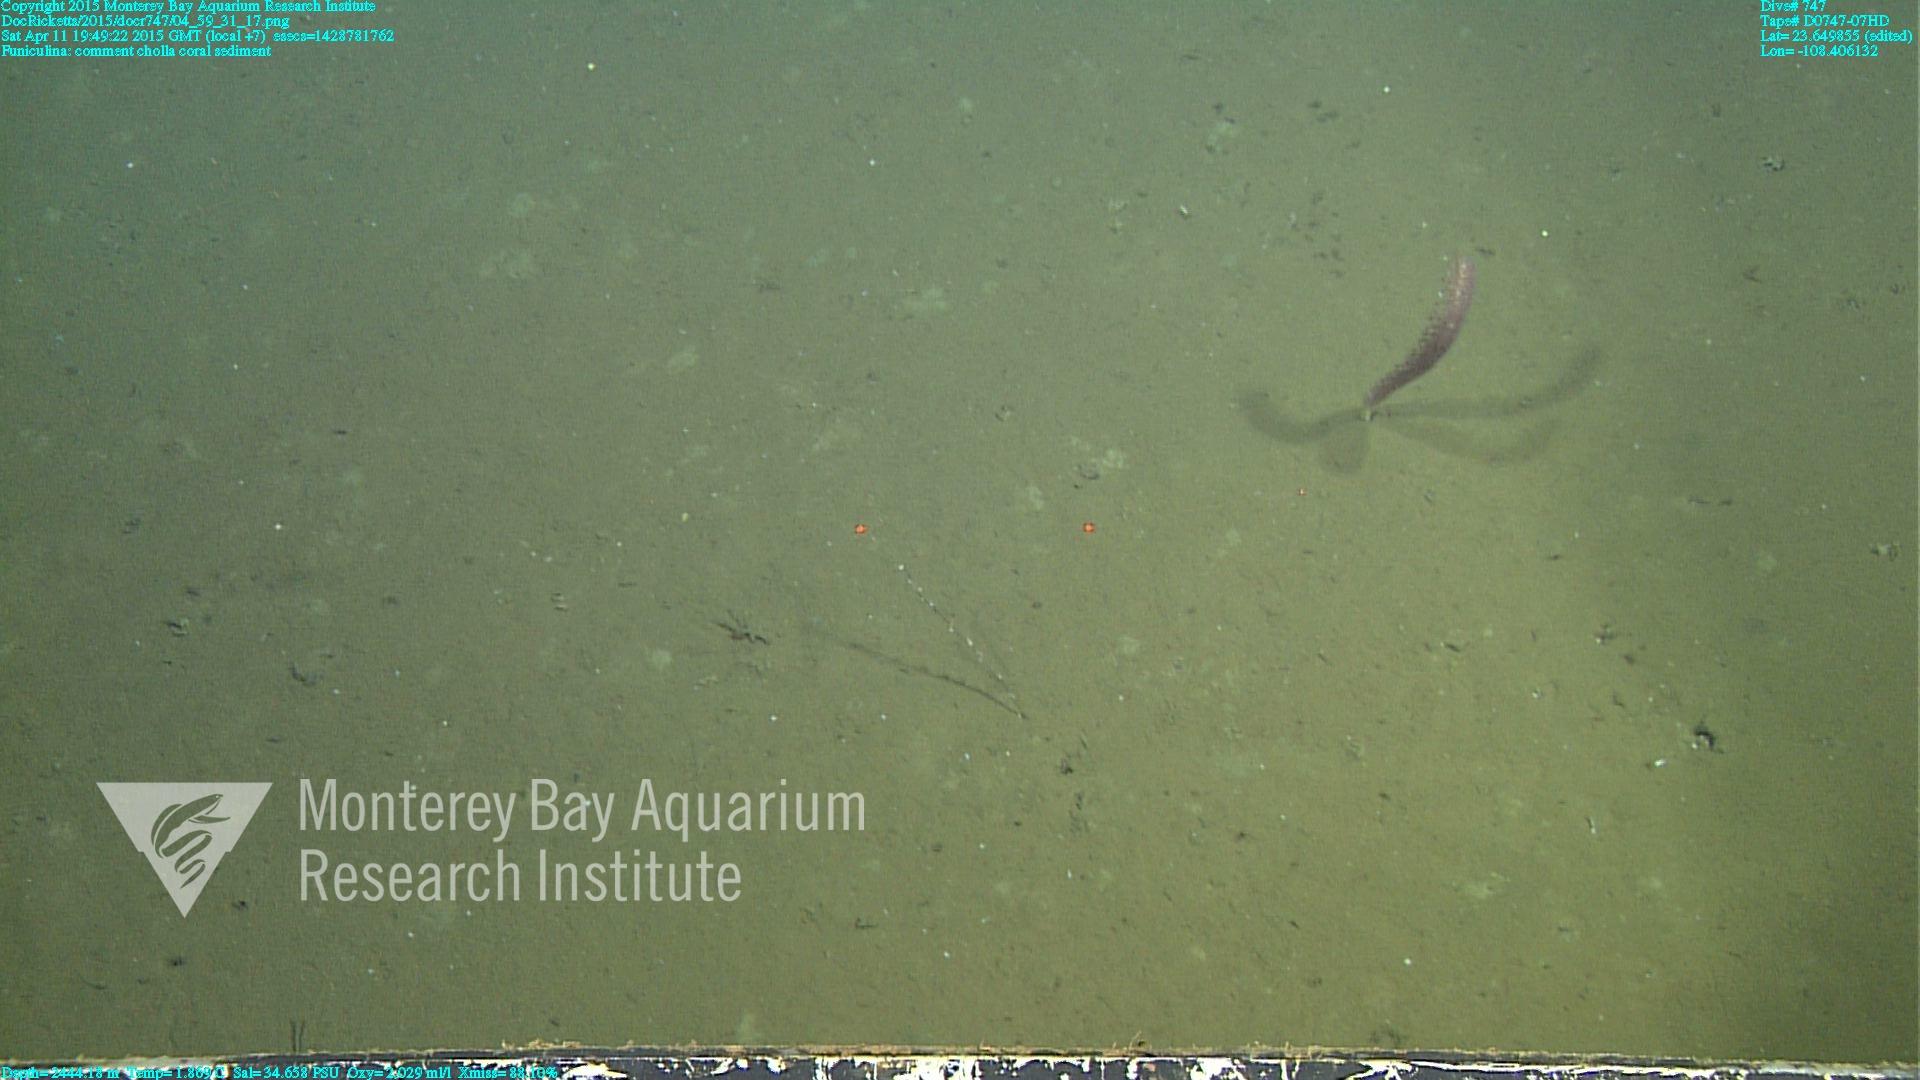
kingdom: Animalia
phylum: Cnidaria
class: Anthozoa
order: Scleralcyonacea
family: Funiculinidae
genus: Funiculina
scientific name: Funiculina
